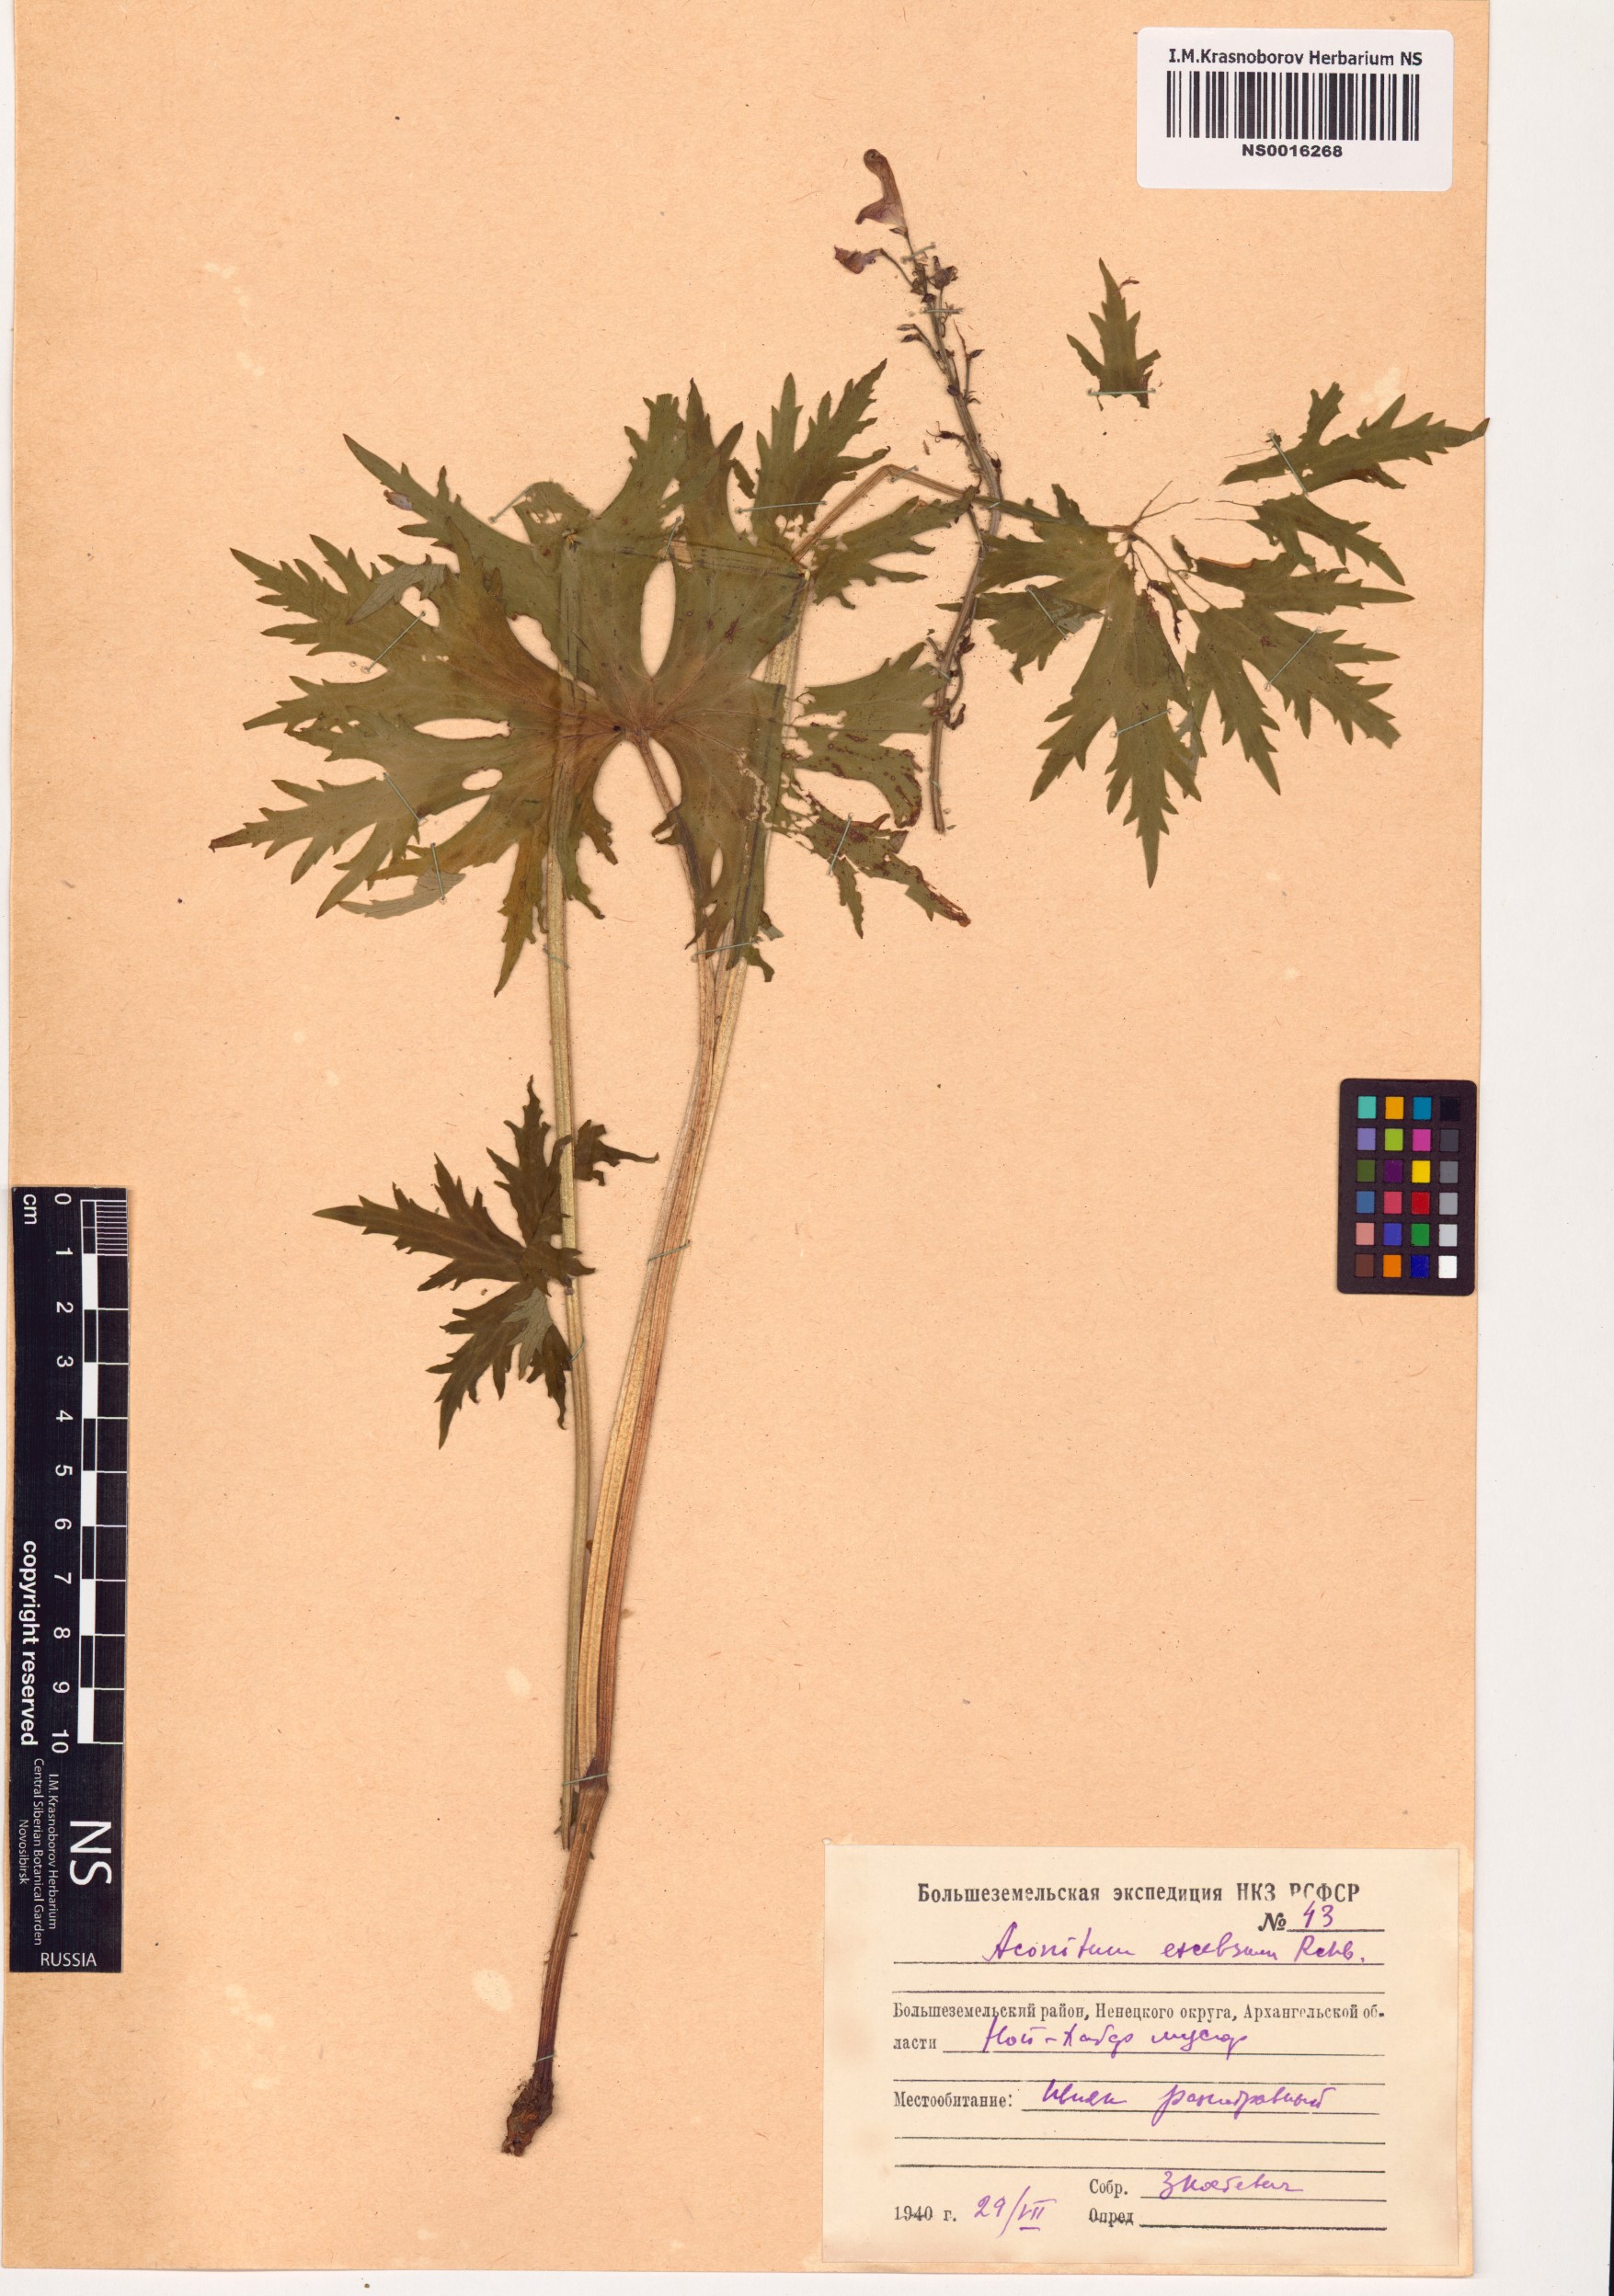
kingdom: Plantae
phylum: Tracheophyta
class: Magnoliopsida
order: Ranunculales
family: Ranunculaceae
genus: Aconitum
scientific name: Aconitum septentrionale
